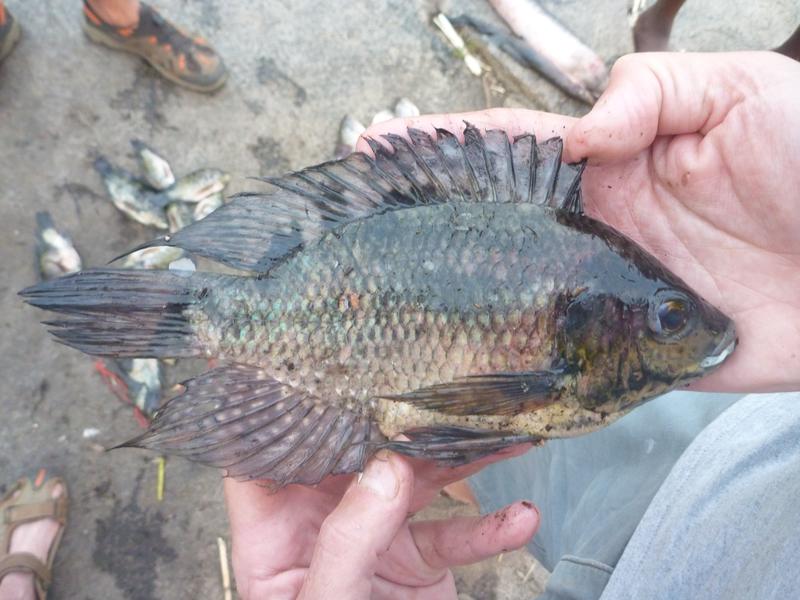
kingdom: Animalia
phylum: Chordata
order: Perciformes
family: Cichlidae
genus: Oreochromis
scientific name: Oreochromis leucostictus
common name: Blue spotted tilapia
